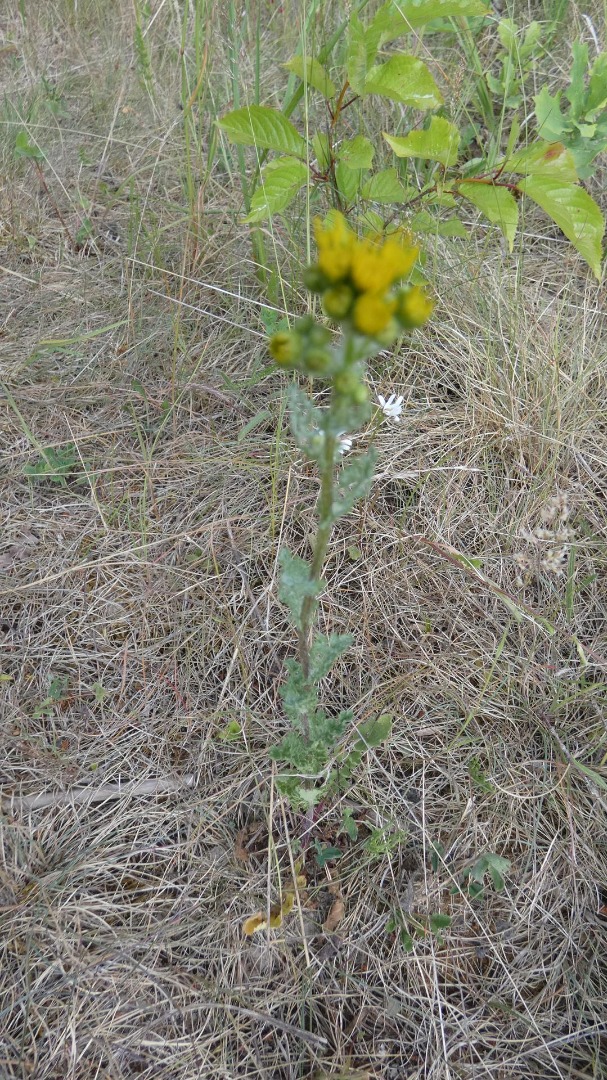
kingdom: Plantae
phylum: Tracheophyta
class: Magnoliopsida
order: Asterales
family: Asteraceae
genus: Senecio
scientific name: Senecio vulgaris
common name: Almindelig brandbæger
